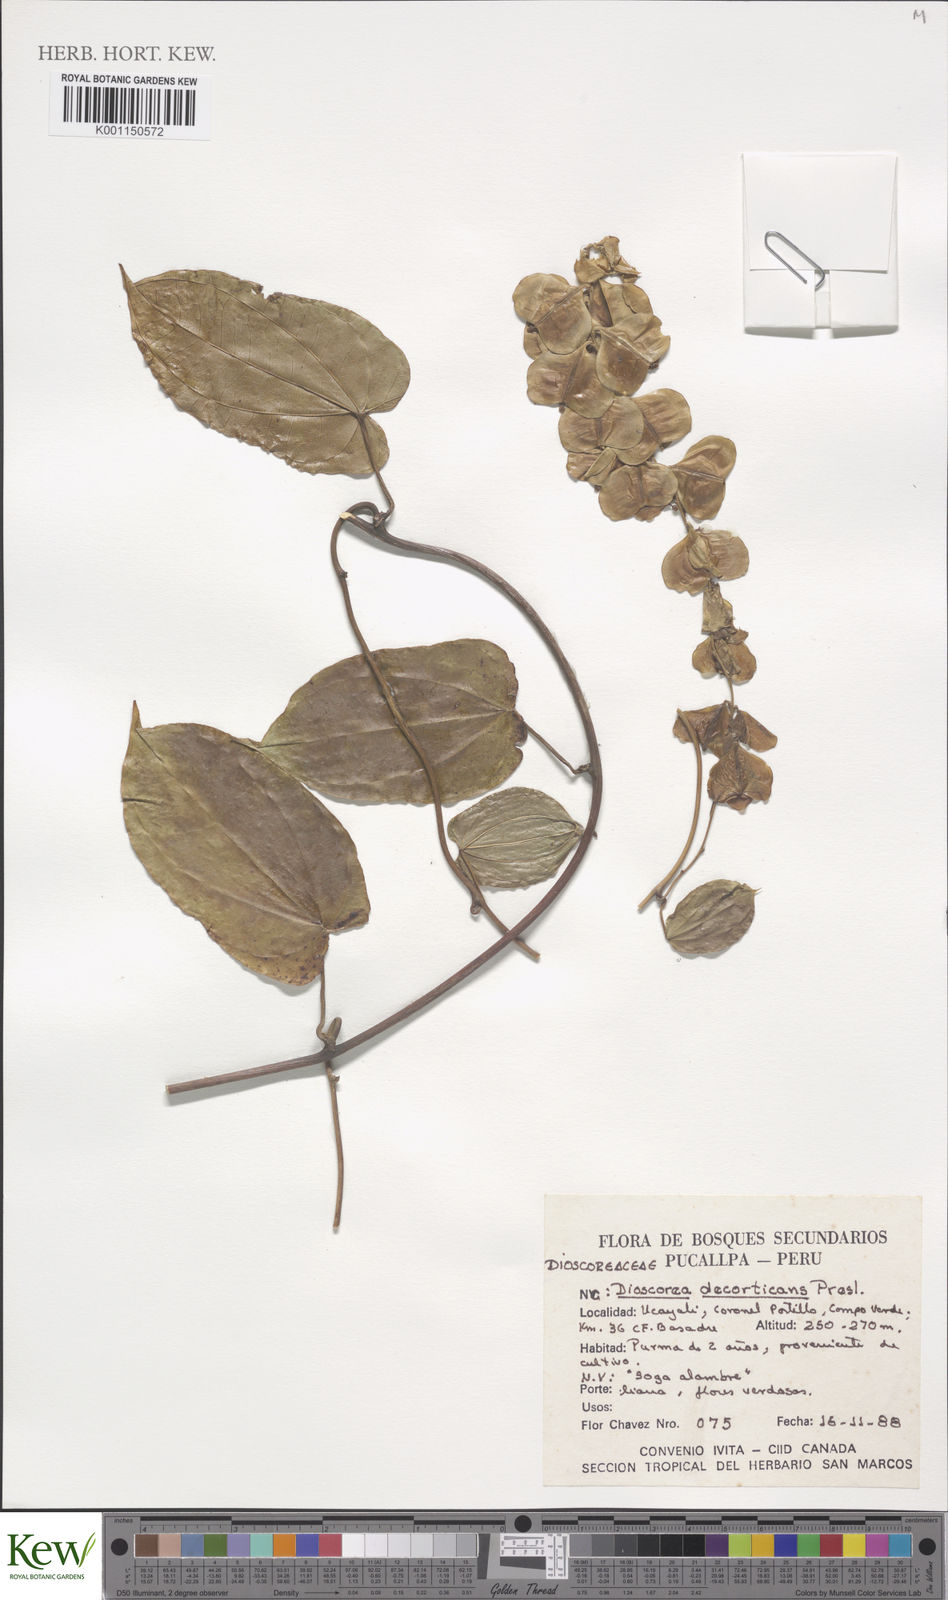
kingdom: Plantae
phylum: Tracheophyta
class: Liliopsida
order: Dioscoreales
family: Dioscoreaceae
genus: Dioscorea
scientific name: Dioscorea amazonum
